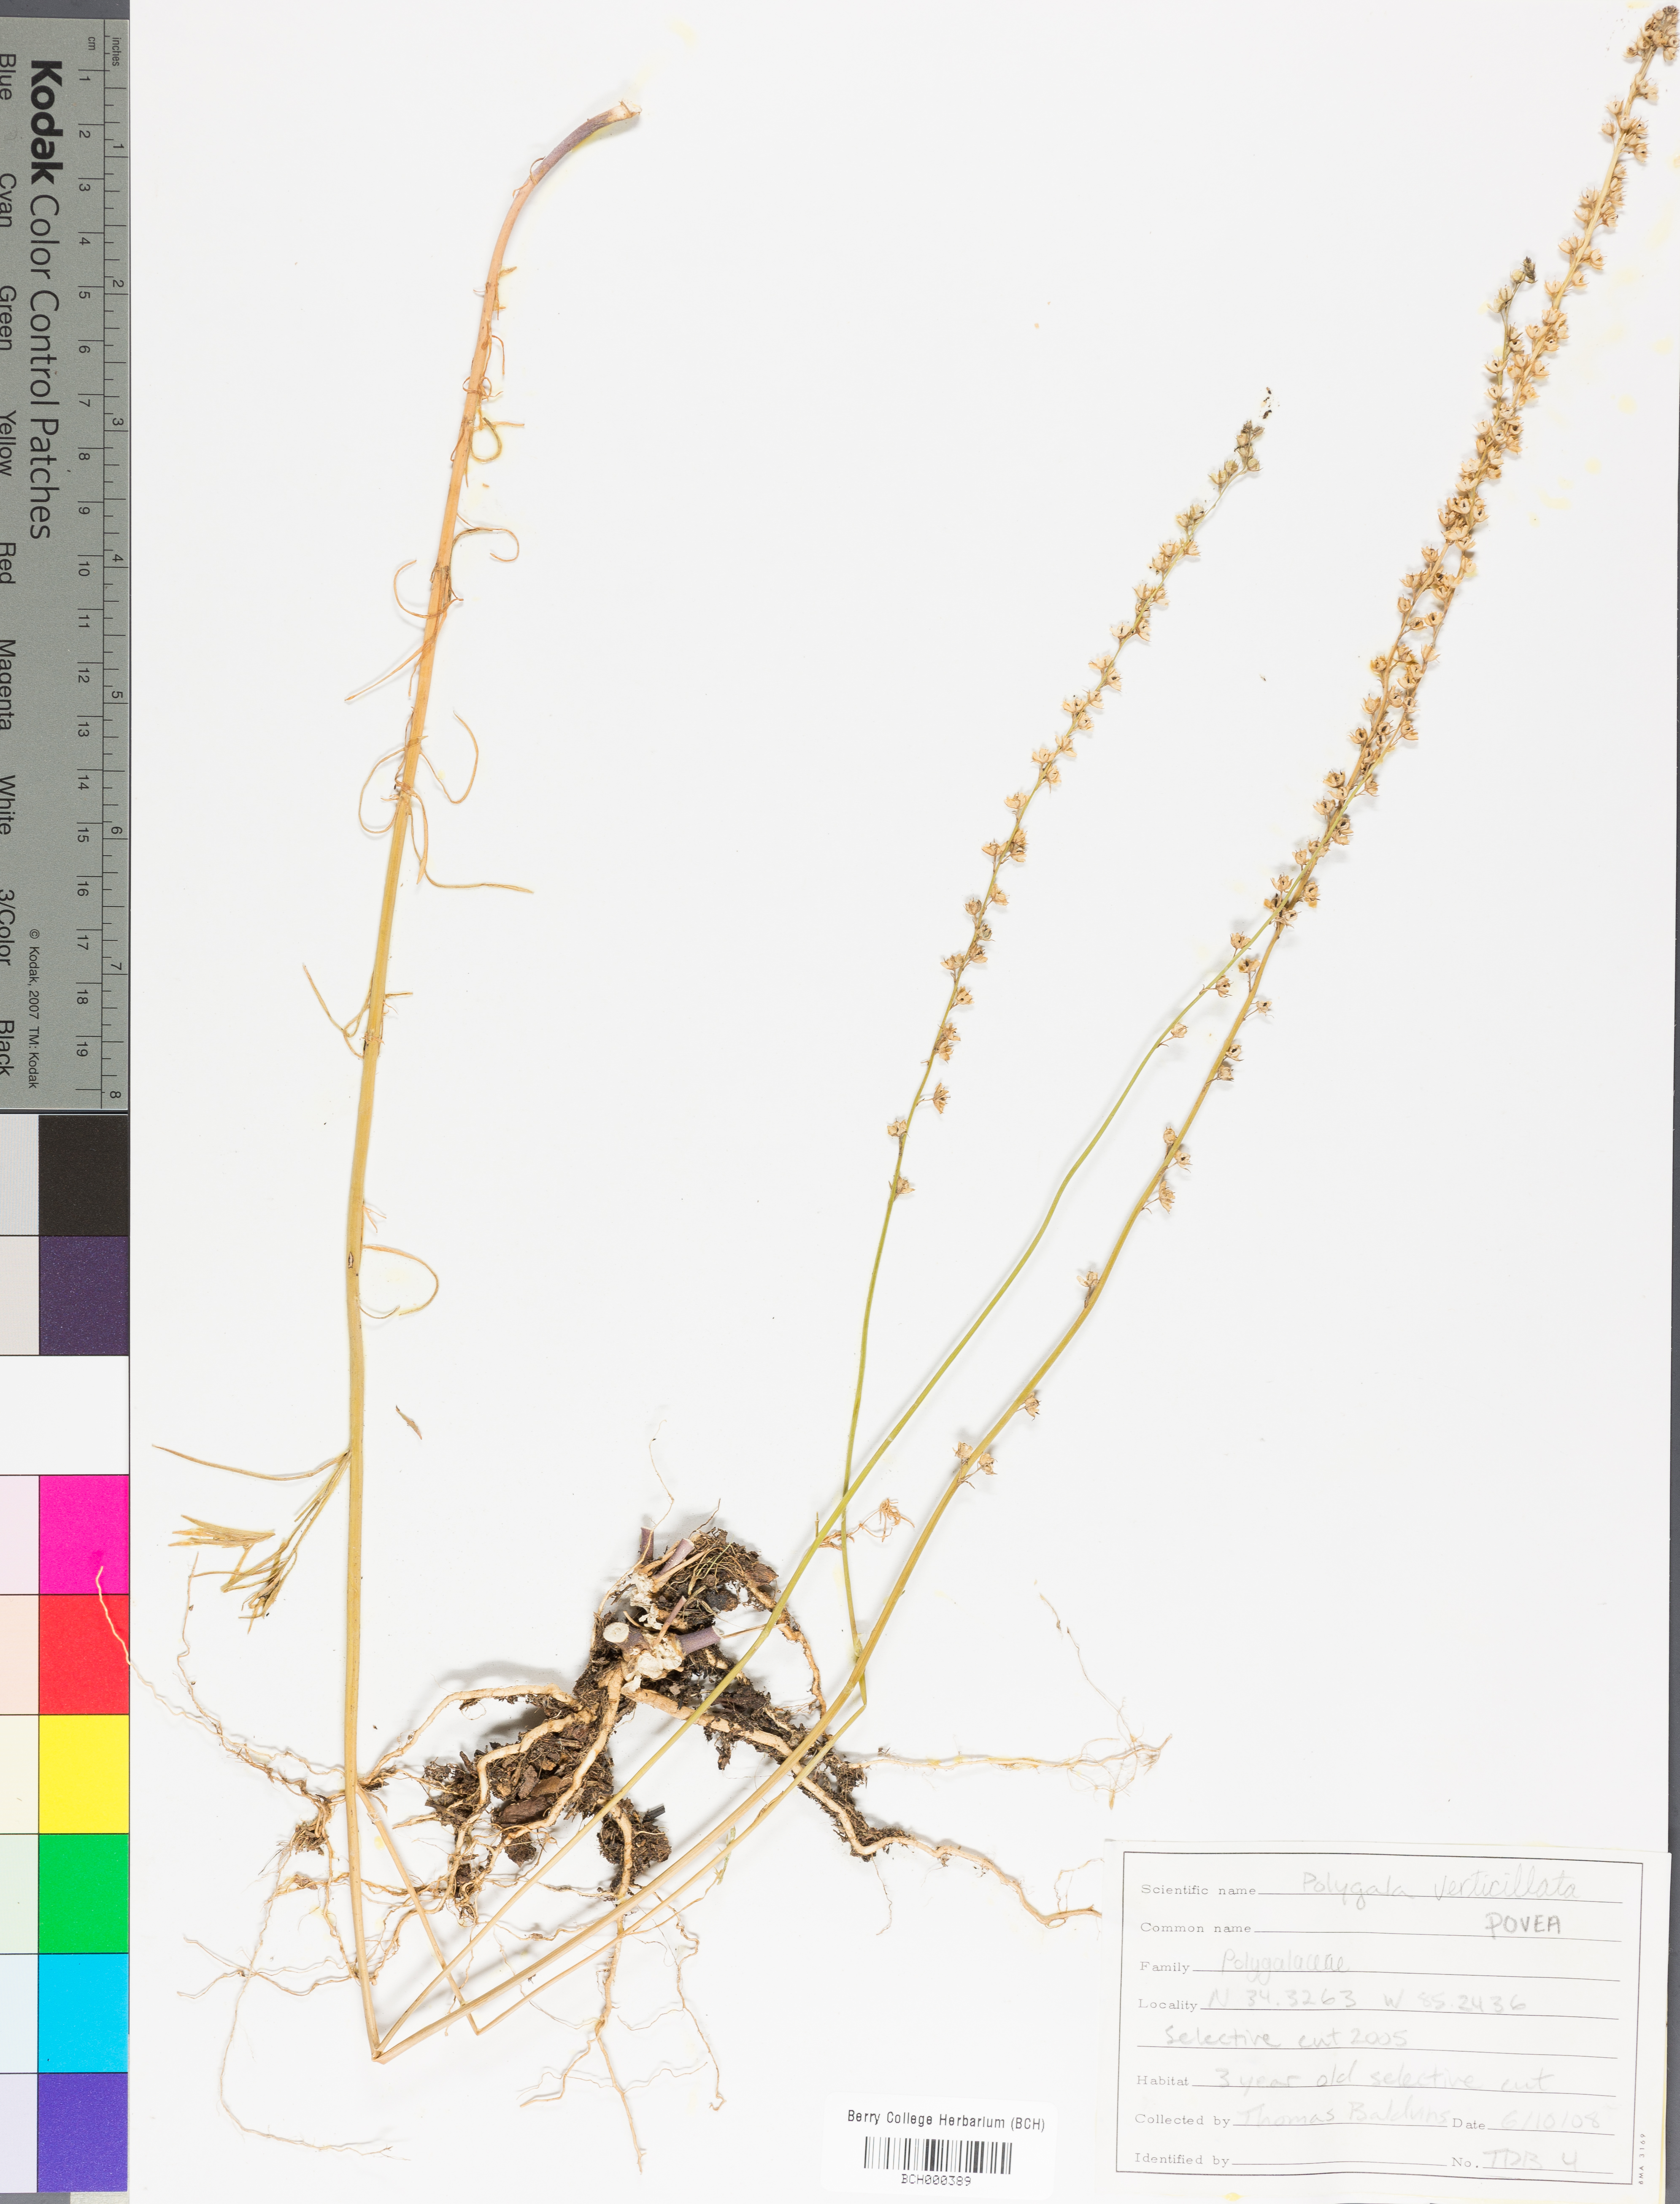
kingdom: Plantae
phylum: Tracheophyta
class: Magnoliopsida
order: Fabales
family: Polygalaceae
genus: Polygala
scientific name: Polygala ambigua
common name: Alternate milkwort
